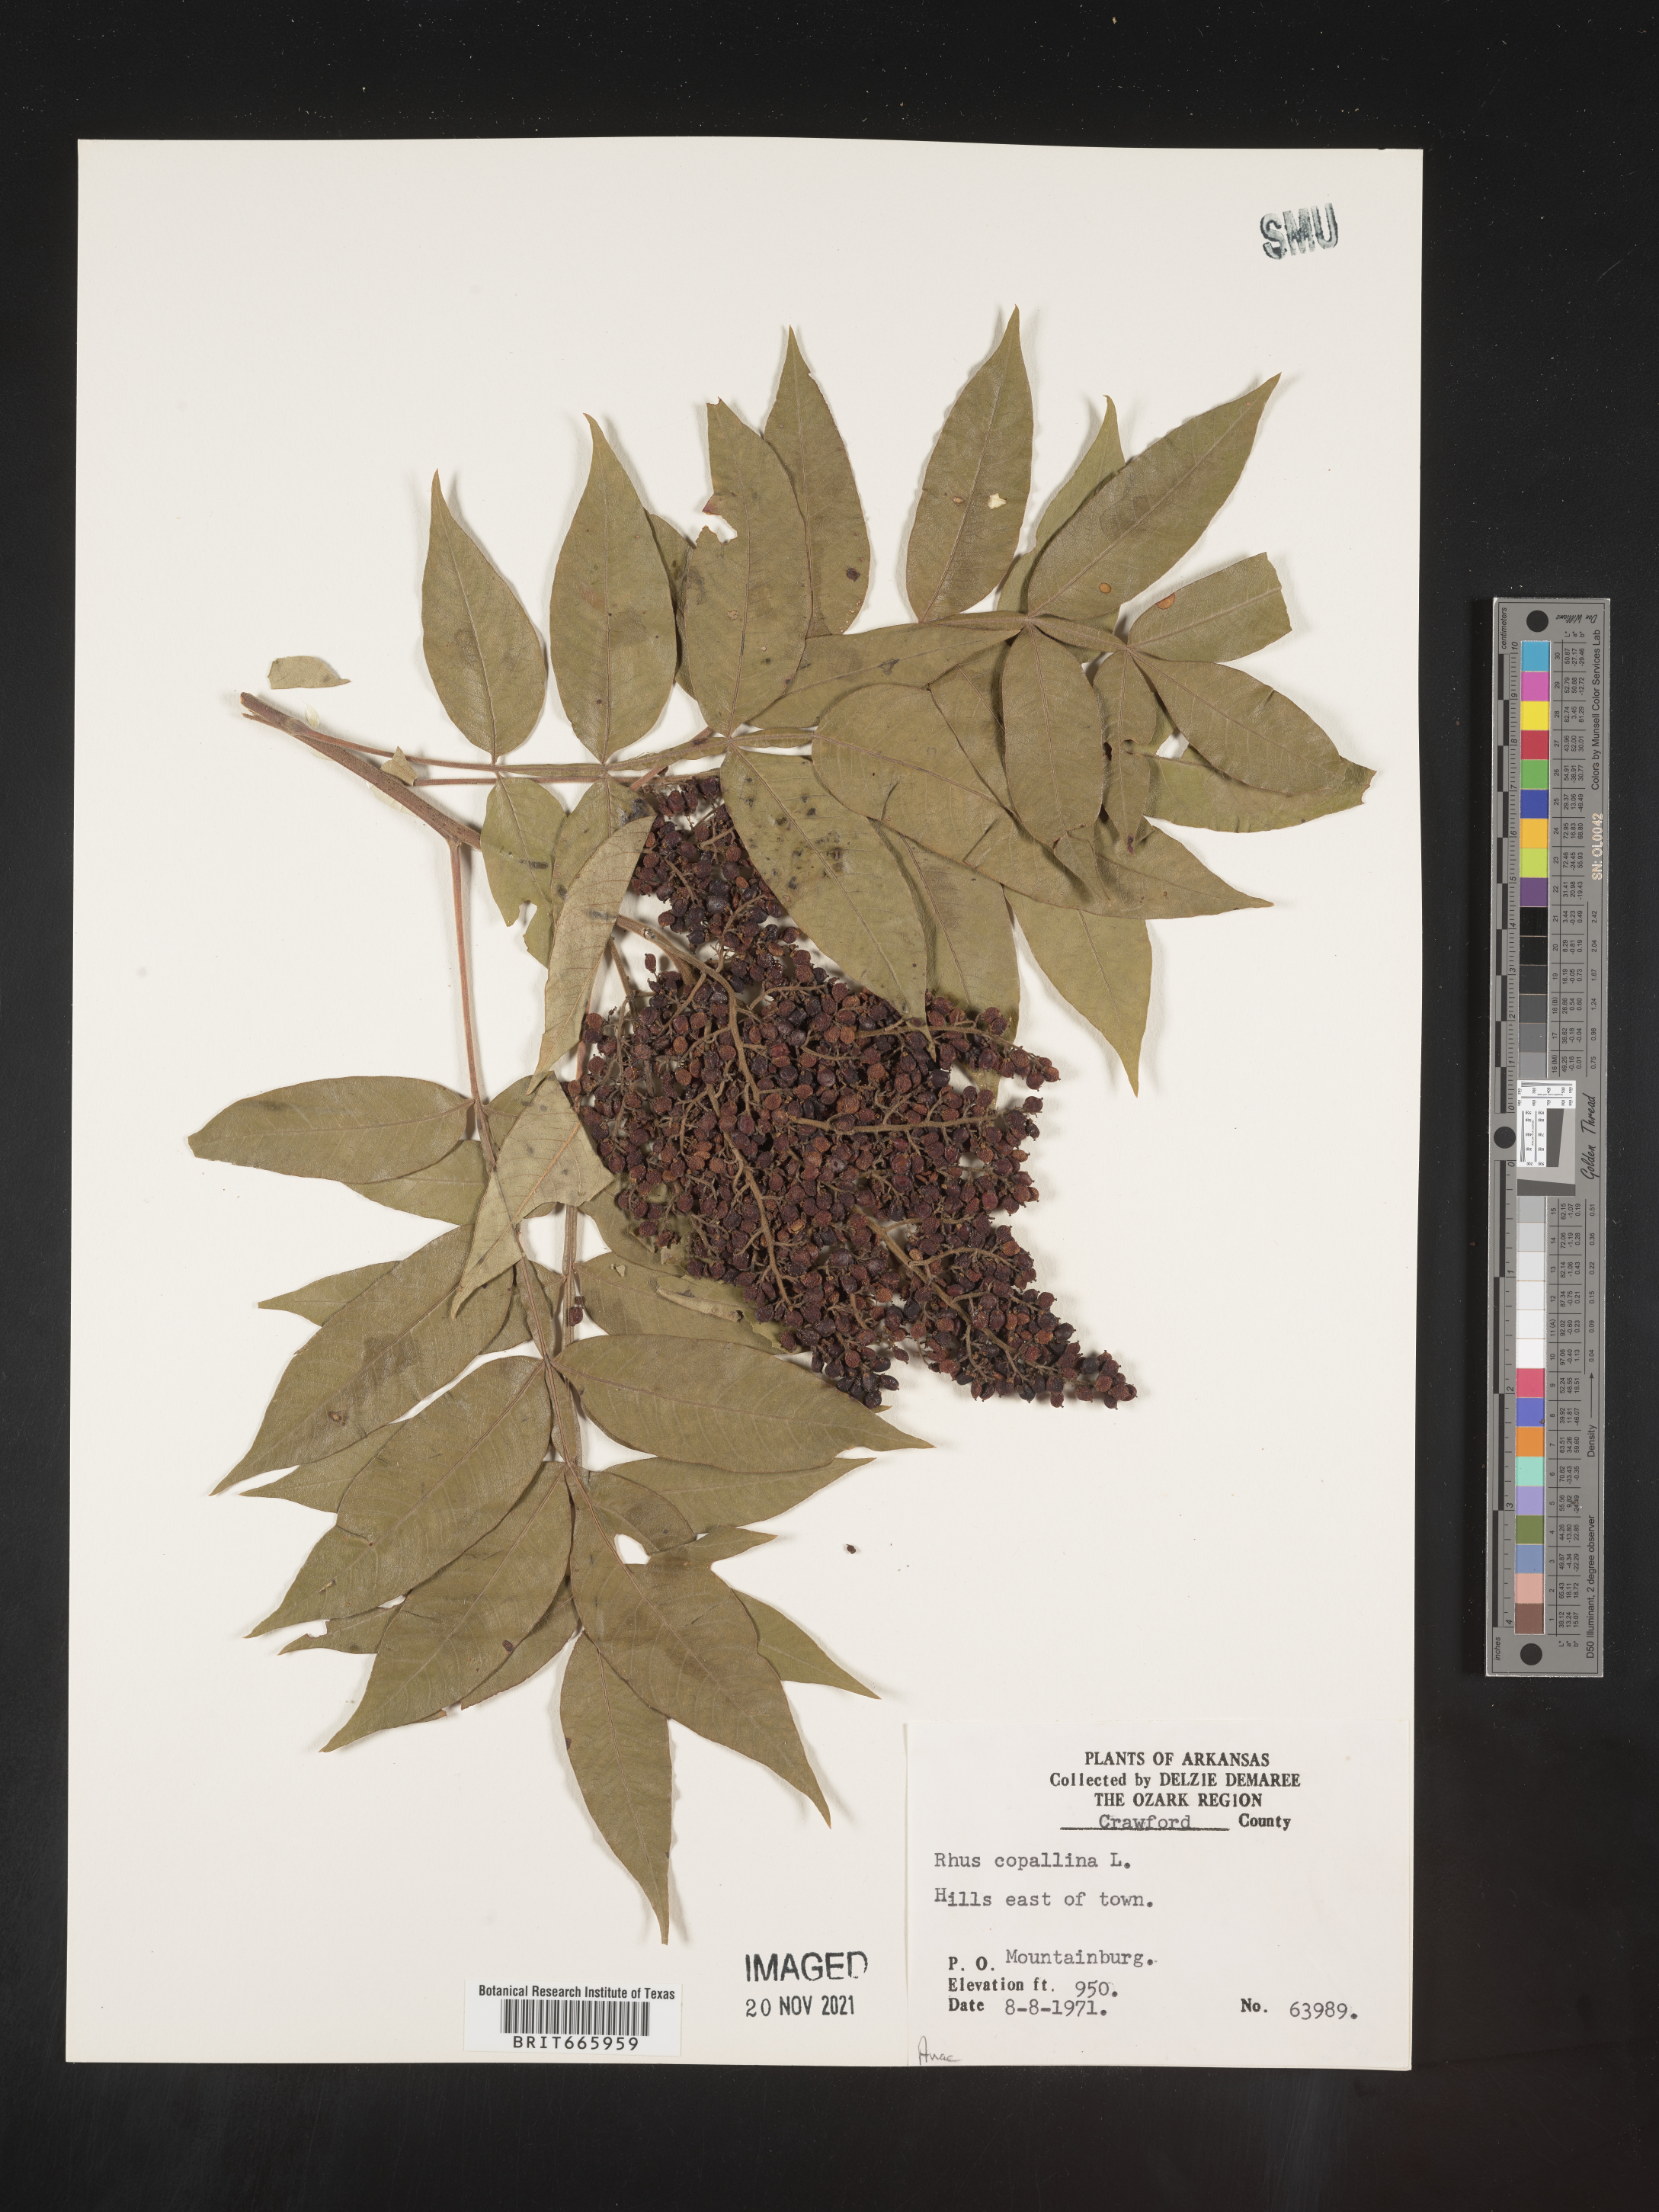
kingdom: Plantae
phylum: Tracheophyta
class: Magnoliopsida
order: Sapindales
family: Anacardiaceae
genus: Rhus
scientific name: Rhus copallina
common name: Shining sumac
